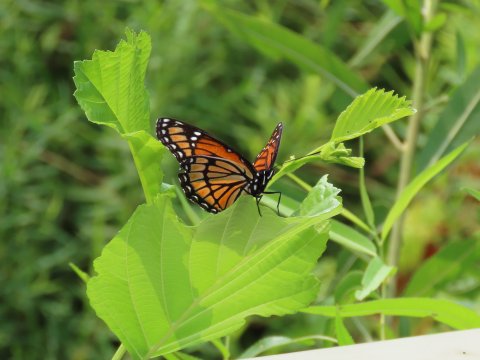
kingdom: Animalia
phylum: Arthropoda
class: Insecta
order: Lepidoptera
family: Nymphalidae
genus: Limenitis
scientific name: Limenitis archippus
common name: Viceroy
